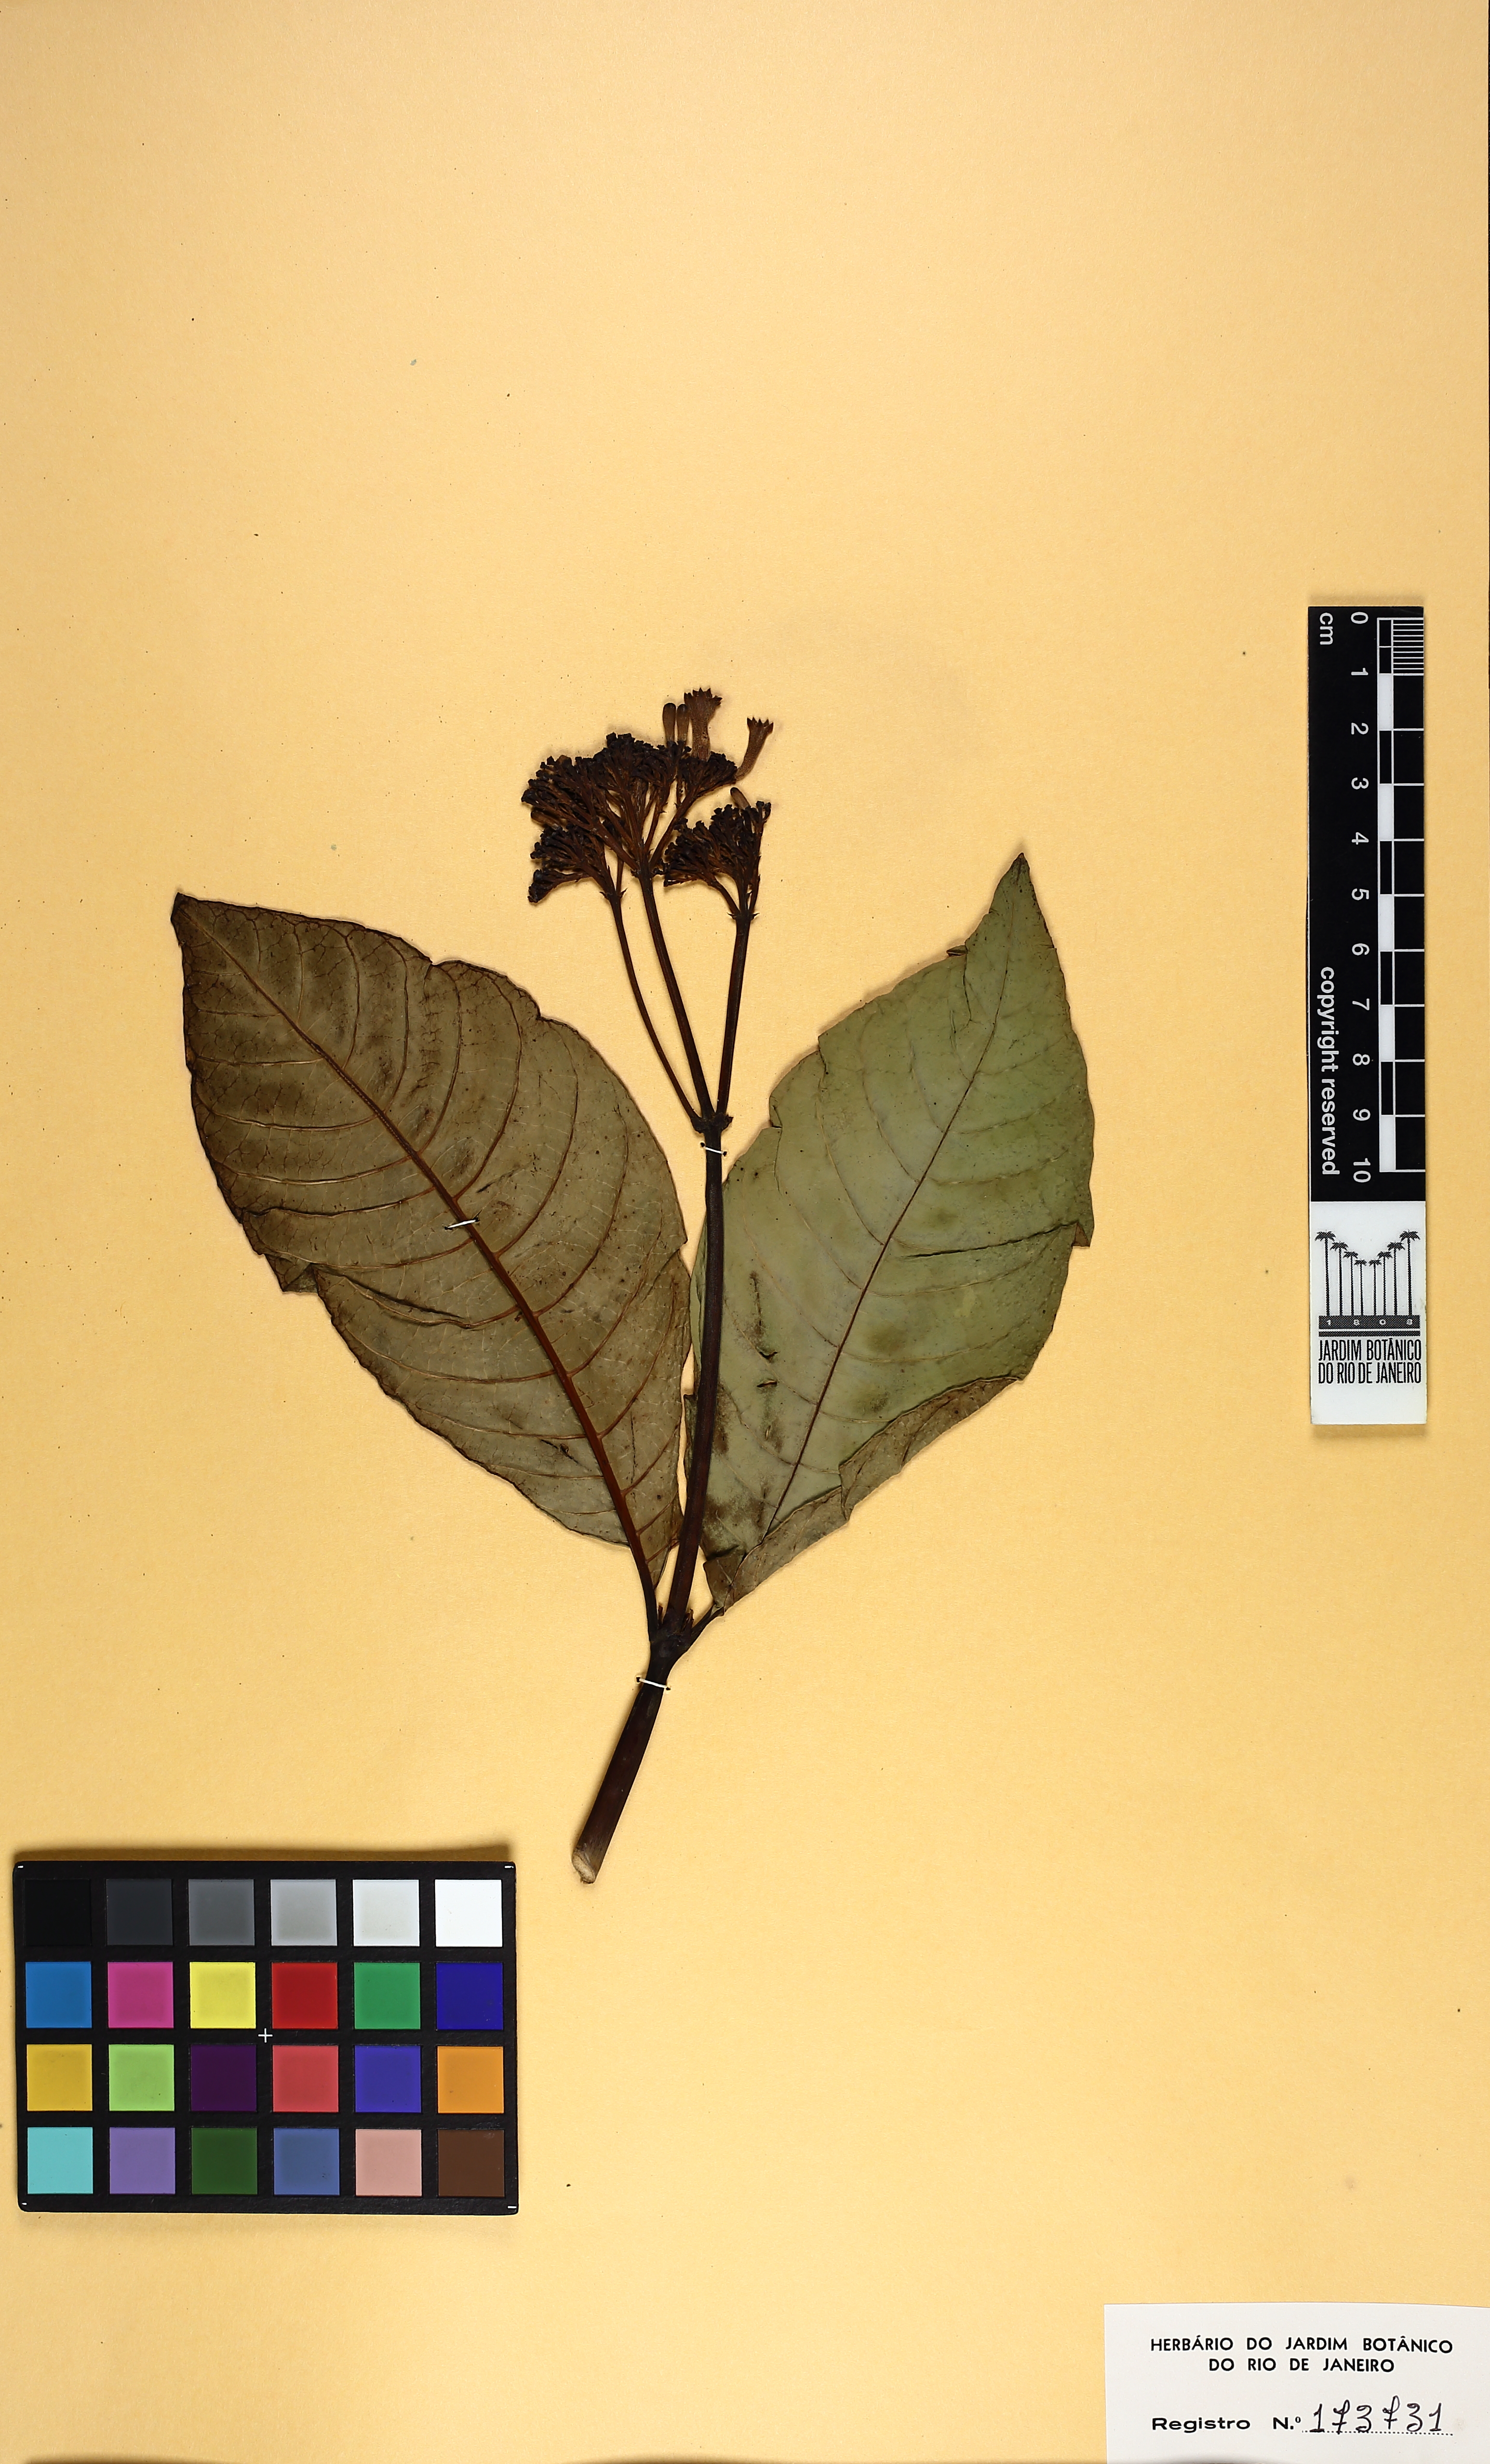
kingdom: Plantae
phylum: Tracheophyta
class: Magnoliopsida
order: Gentianales
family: Rubiaceae
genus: Palicourea
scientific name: Palicourea nitidella
